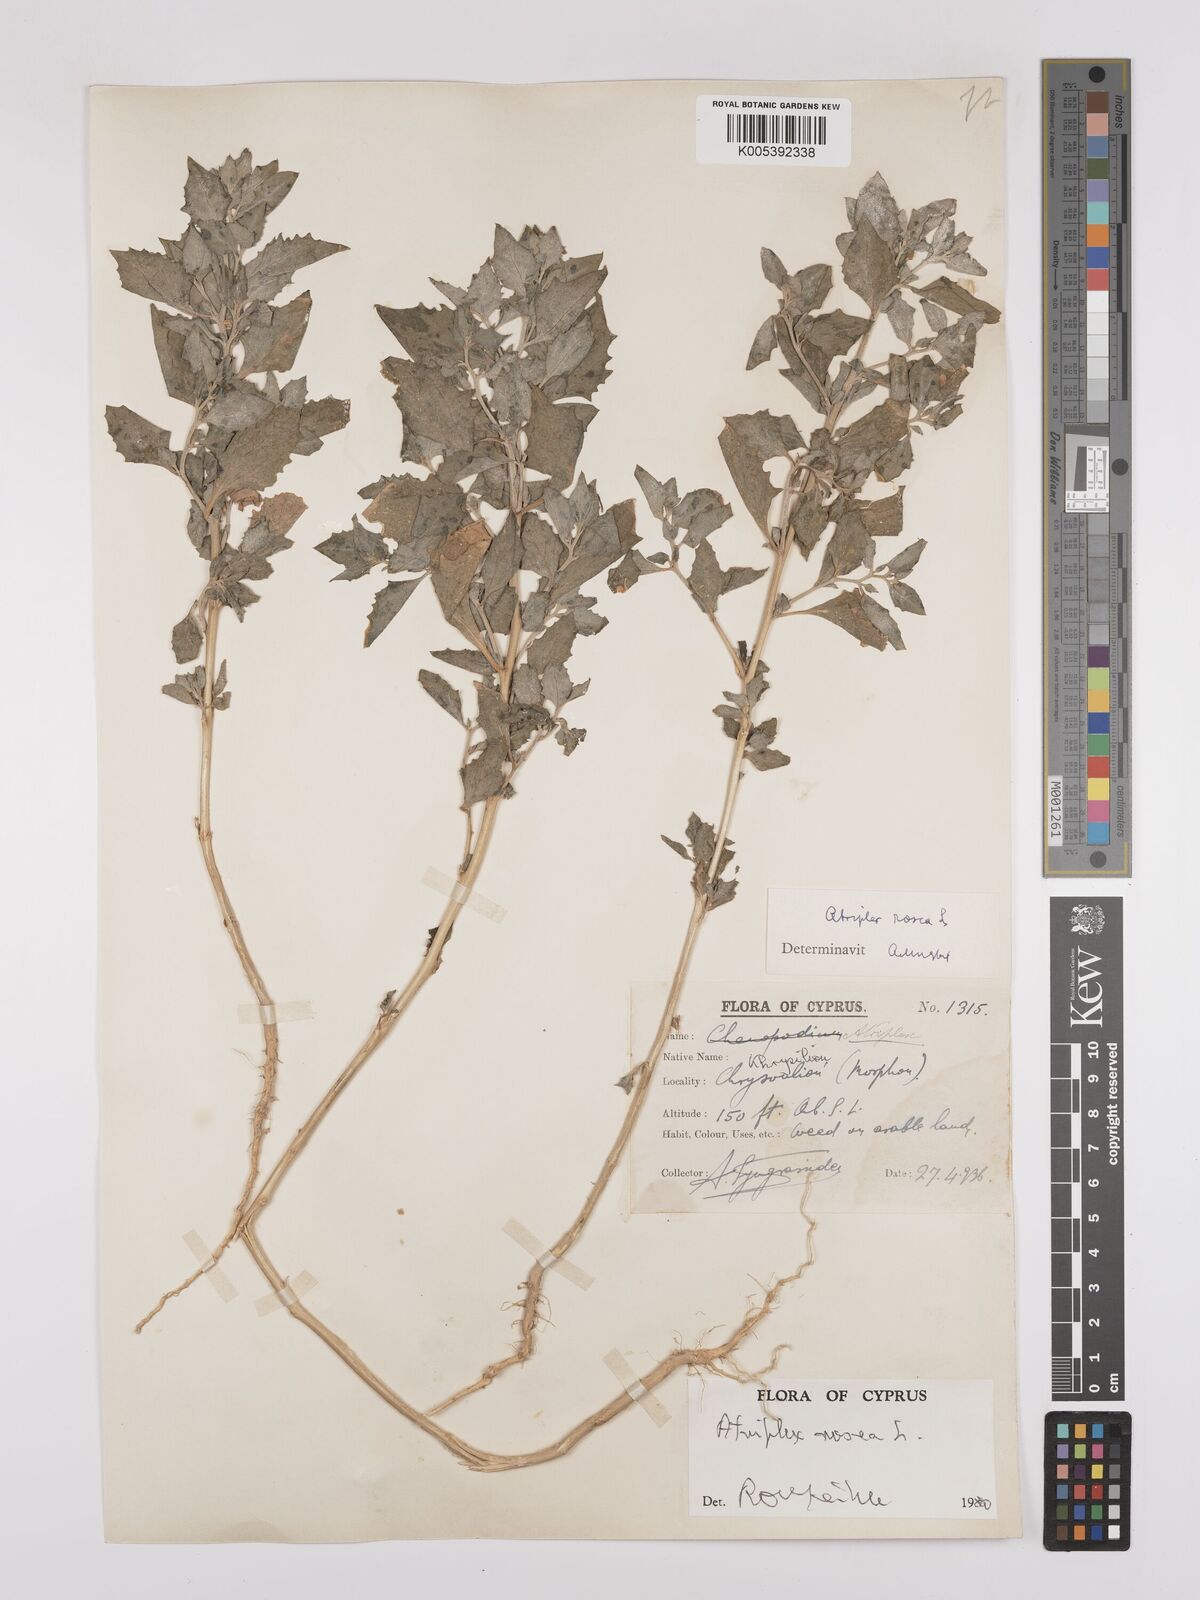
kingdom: Plantae
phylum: Tracheophyta
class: Magnoliopsida
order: Caryophyllales
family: Amaranthaceae
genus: Atriplex
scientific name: Atriplex
